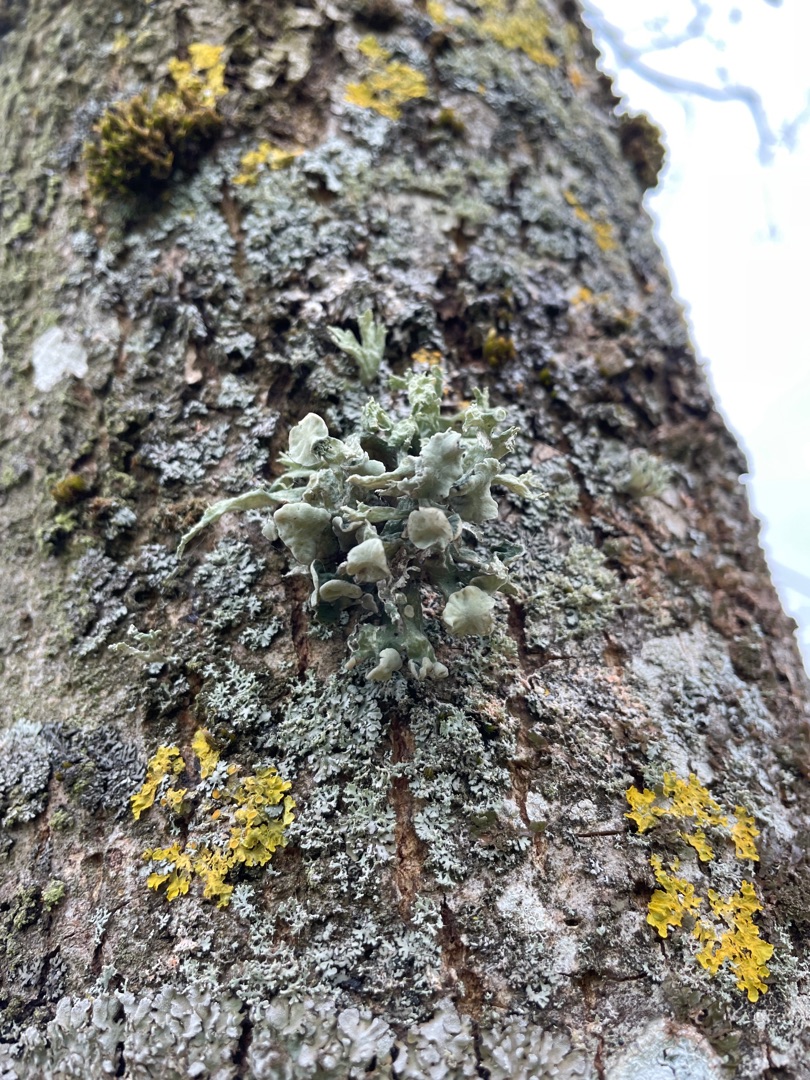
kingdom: Fungi
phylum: Ascomycota
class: Lecanoromycetes
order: Lecanorales
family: Ramalinaceae
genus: Ramalina
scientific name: Ramalina fastigiata
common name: Tue-grenlav
